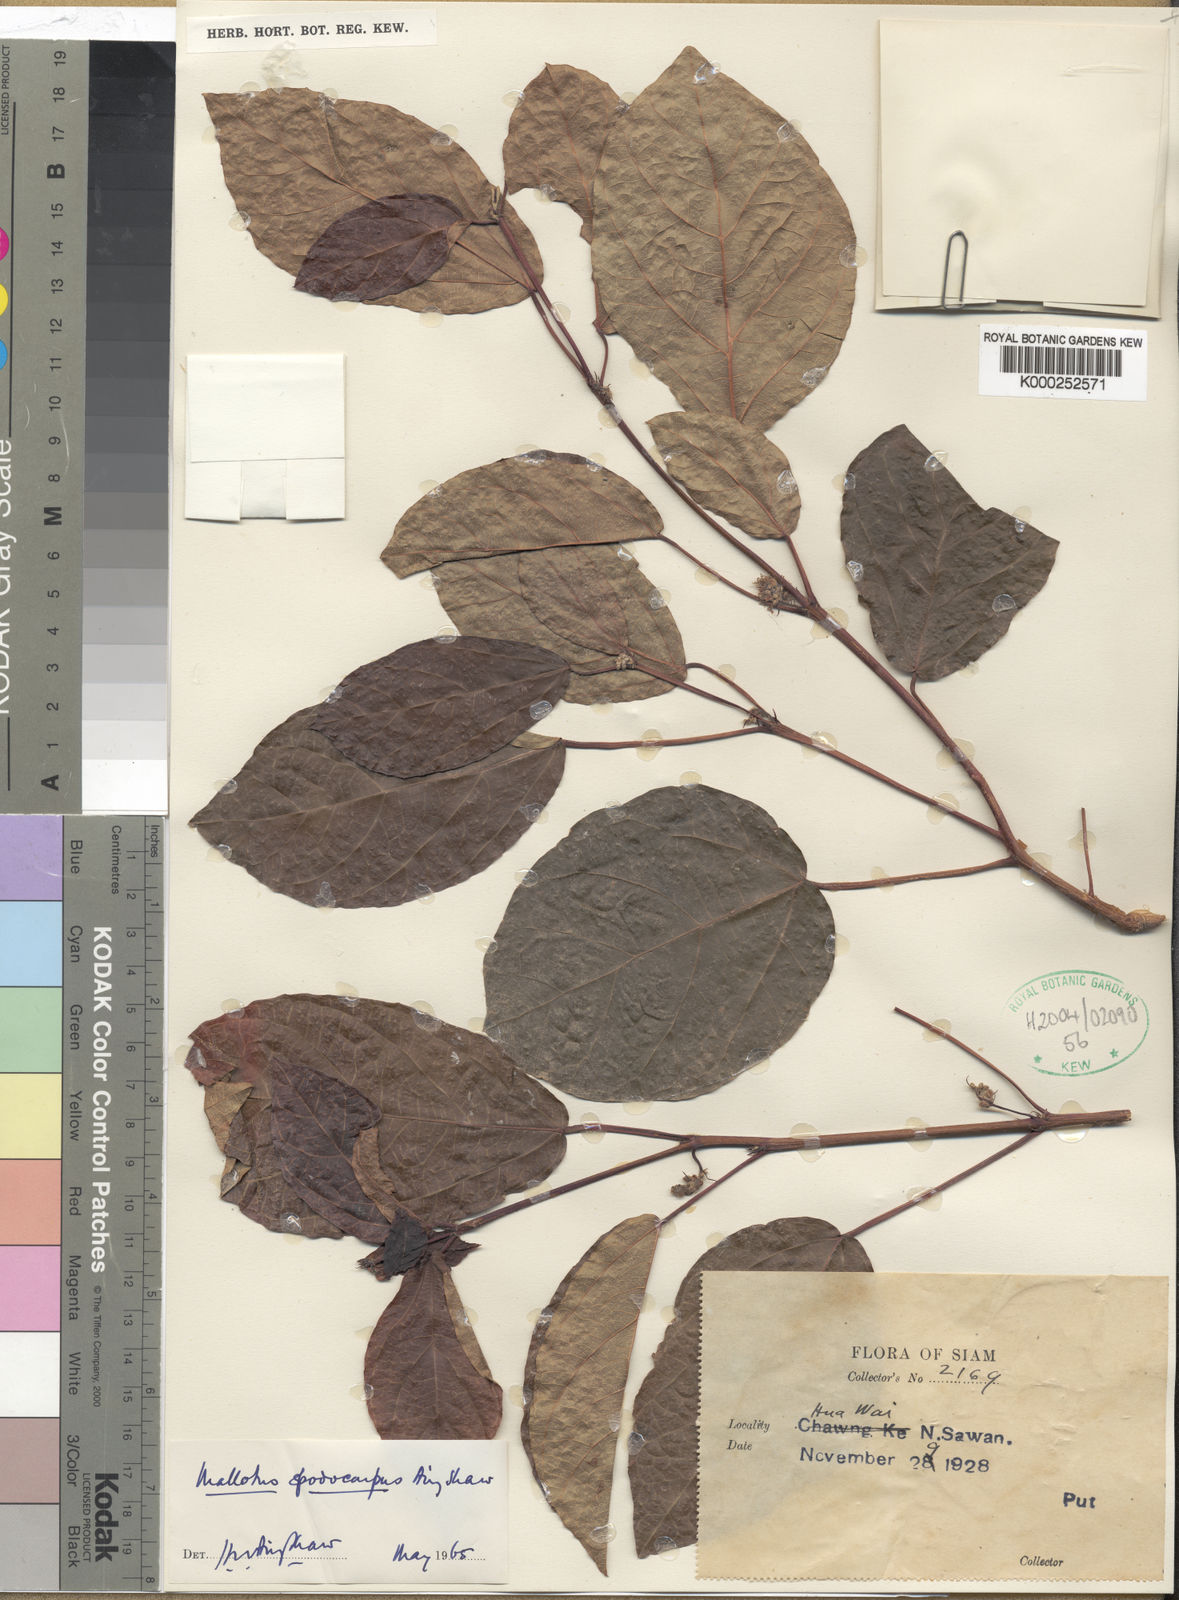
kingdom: Plantae
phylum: Tracheophyta
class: Magnoliopsida
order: Malpighiales
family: Euphorbiaceae
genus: Mallotus
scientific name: Mallotus coudercii
